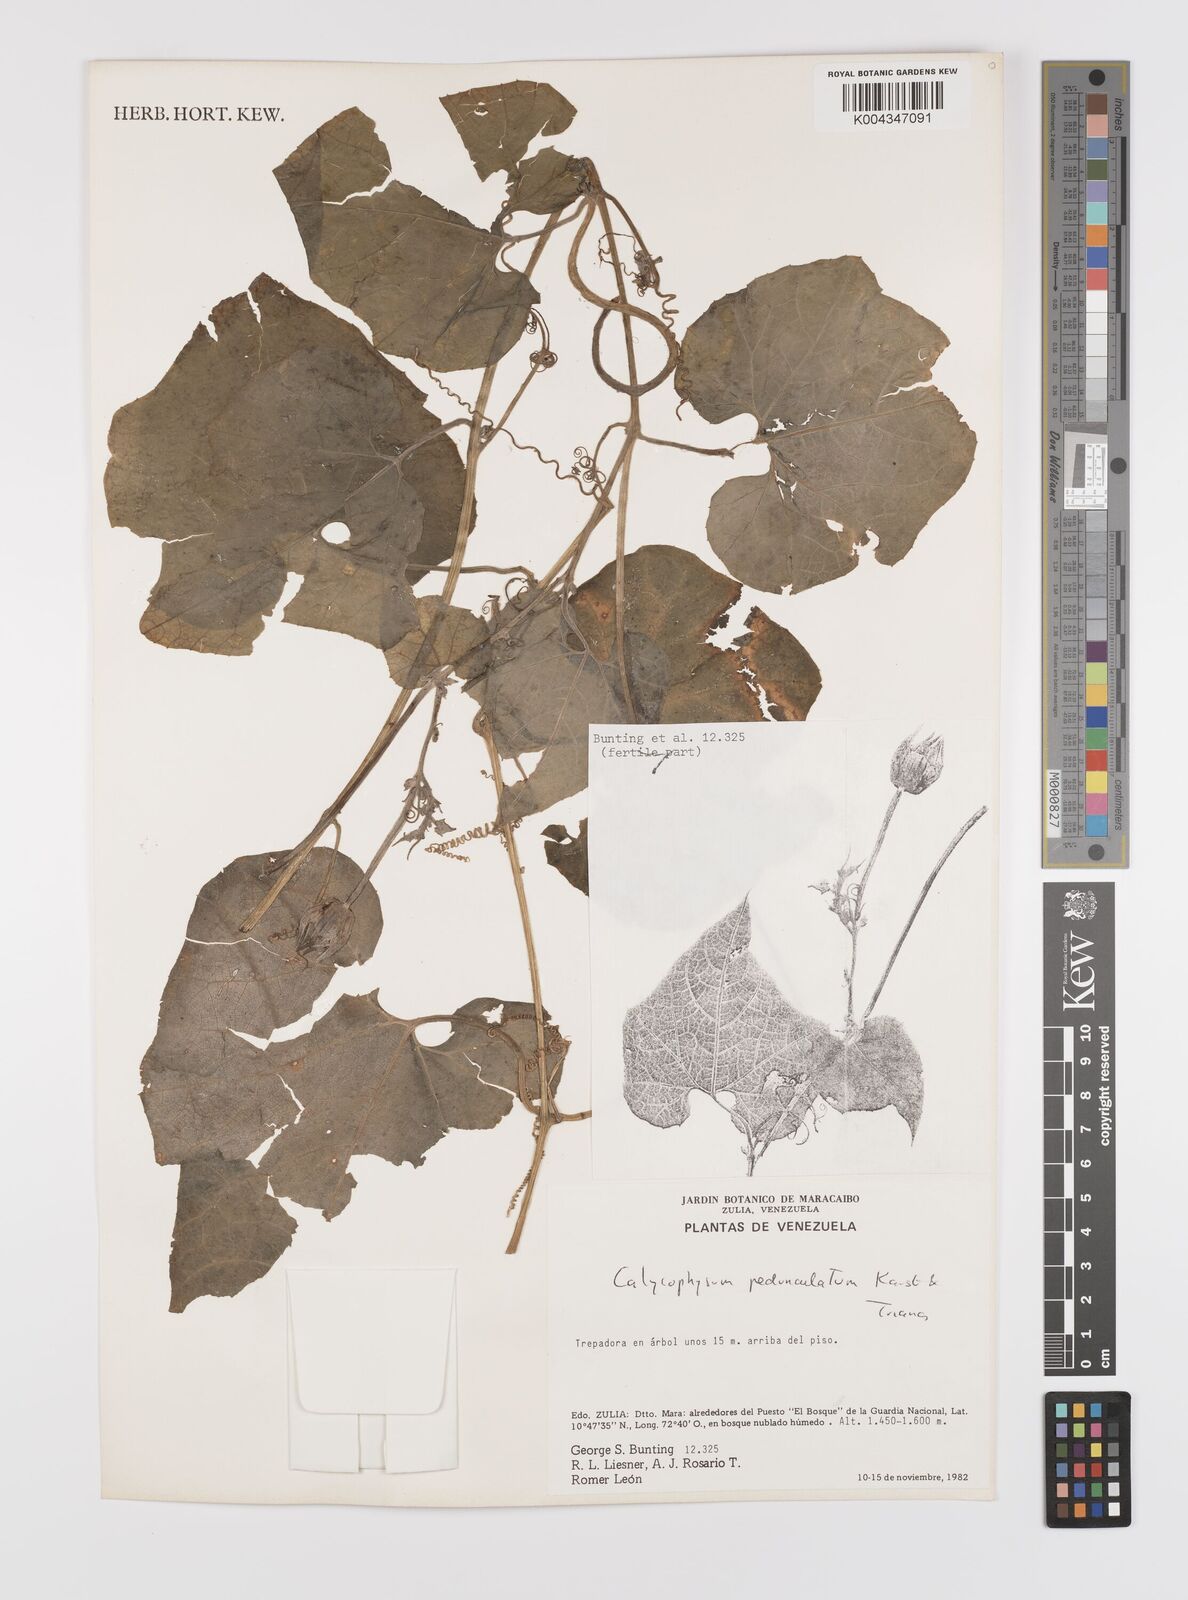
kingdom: Plantae
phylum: Tracheophyta
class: Magnoliopsida
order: Cucurbitales
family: Cucurbitaceae
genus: Calycophysum
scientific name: Calycophysum pedunculatum
